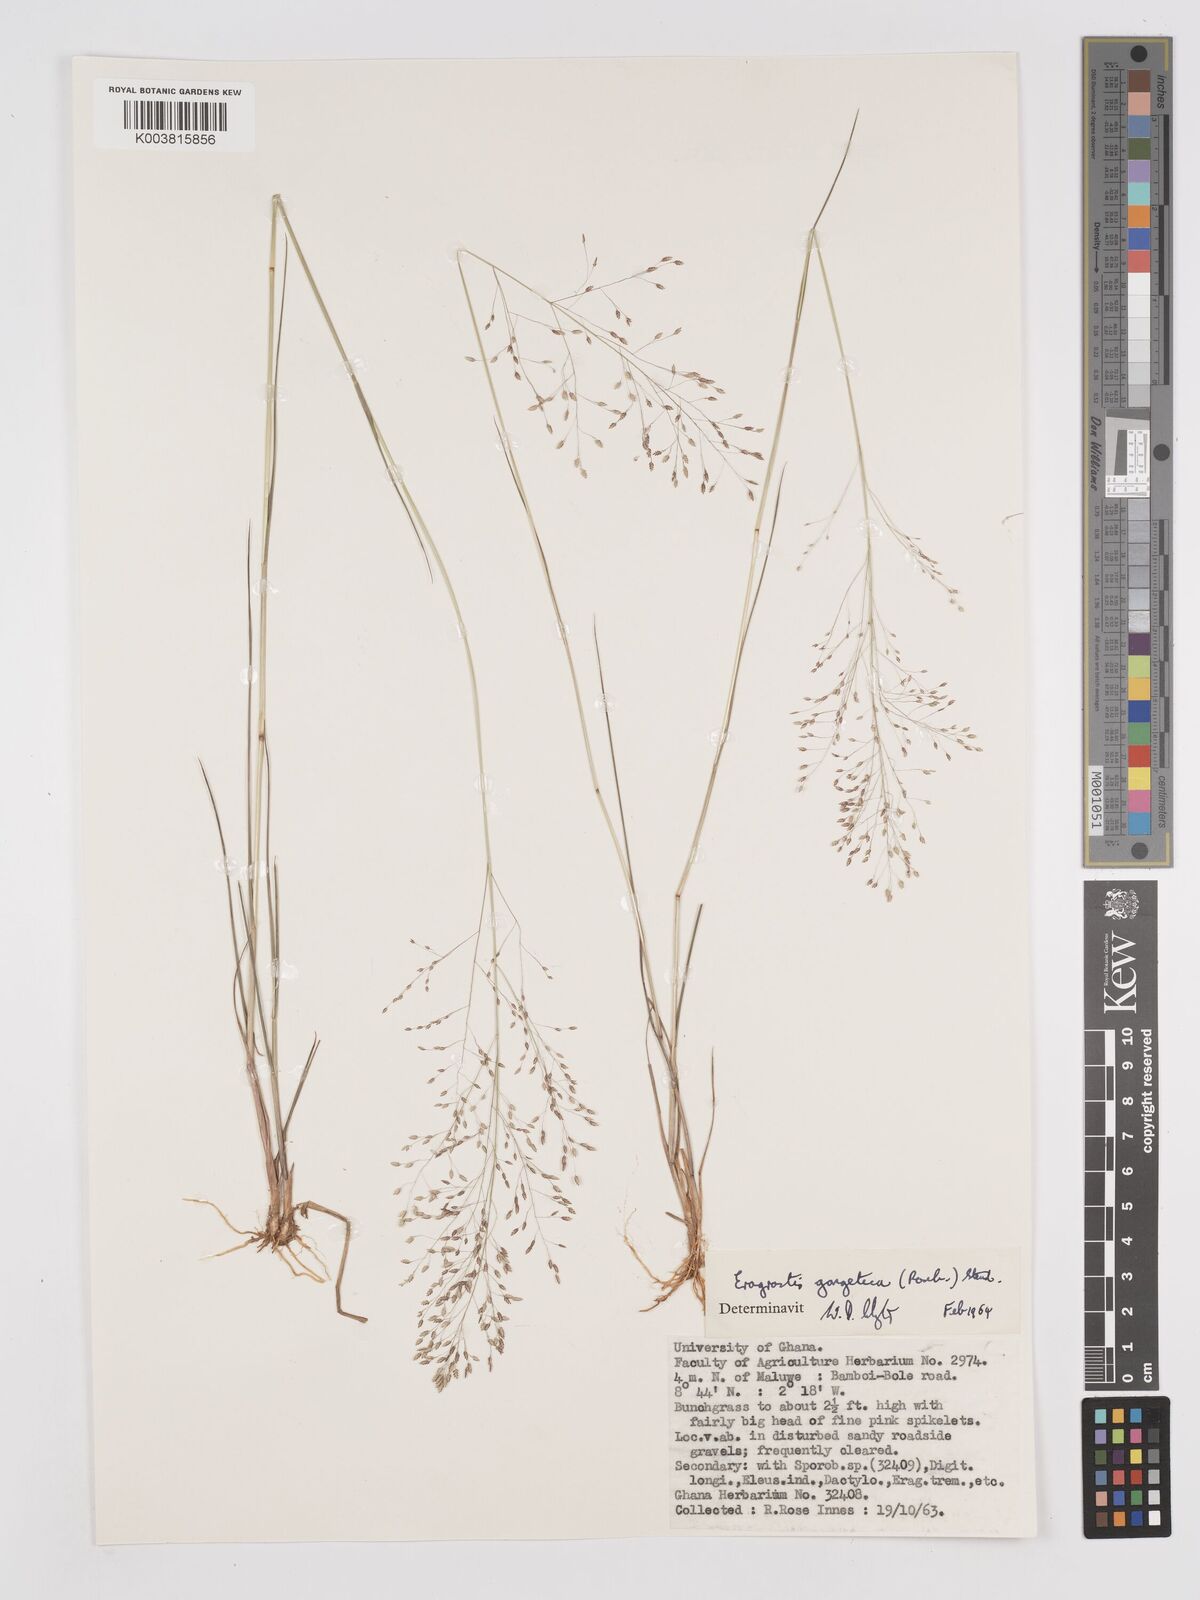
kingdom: Plantae
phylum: Tracheophyta
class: Liliopsida
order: Poales
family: Poaceae
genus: Eragrostis
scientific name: Eragrostis gangetica
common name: Slimflower lovegrass
